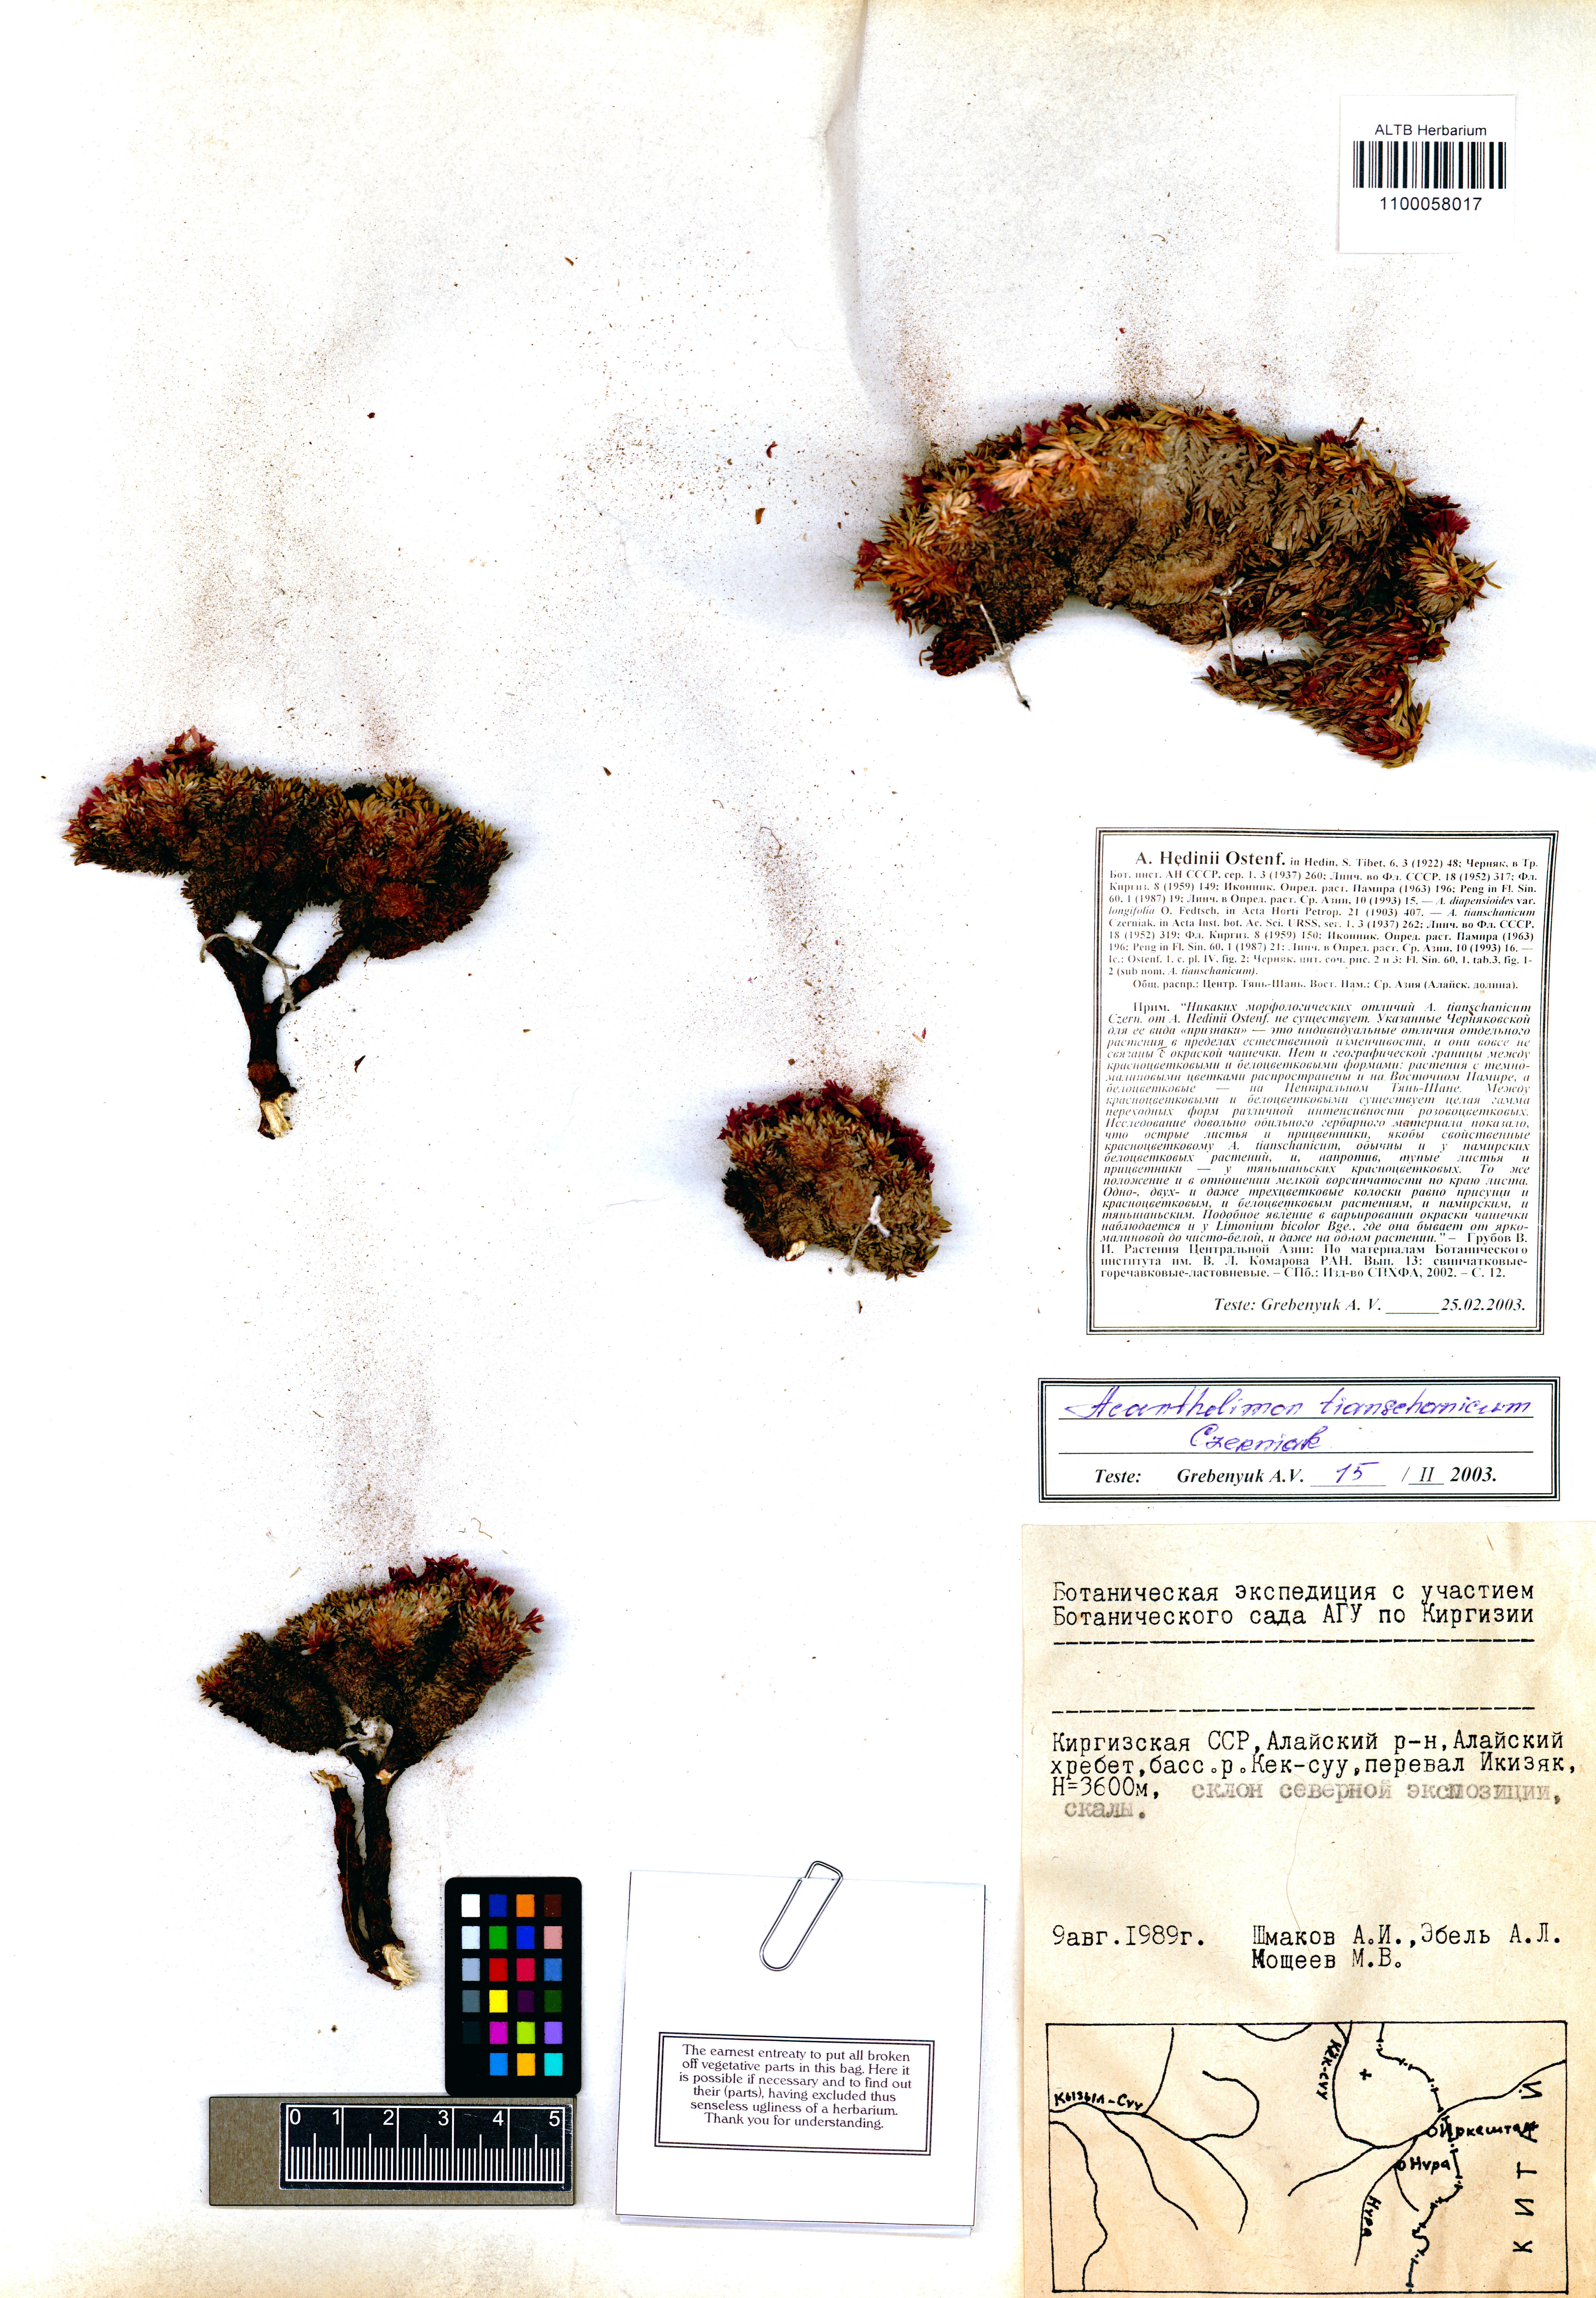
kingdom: Plantae
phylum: Tracheophyta
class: Magnoliopsida
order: Caryophyllales
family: Plumbaginaceae
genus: Acantholimon
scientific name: Acantholimon tianschanicum
